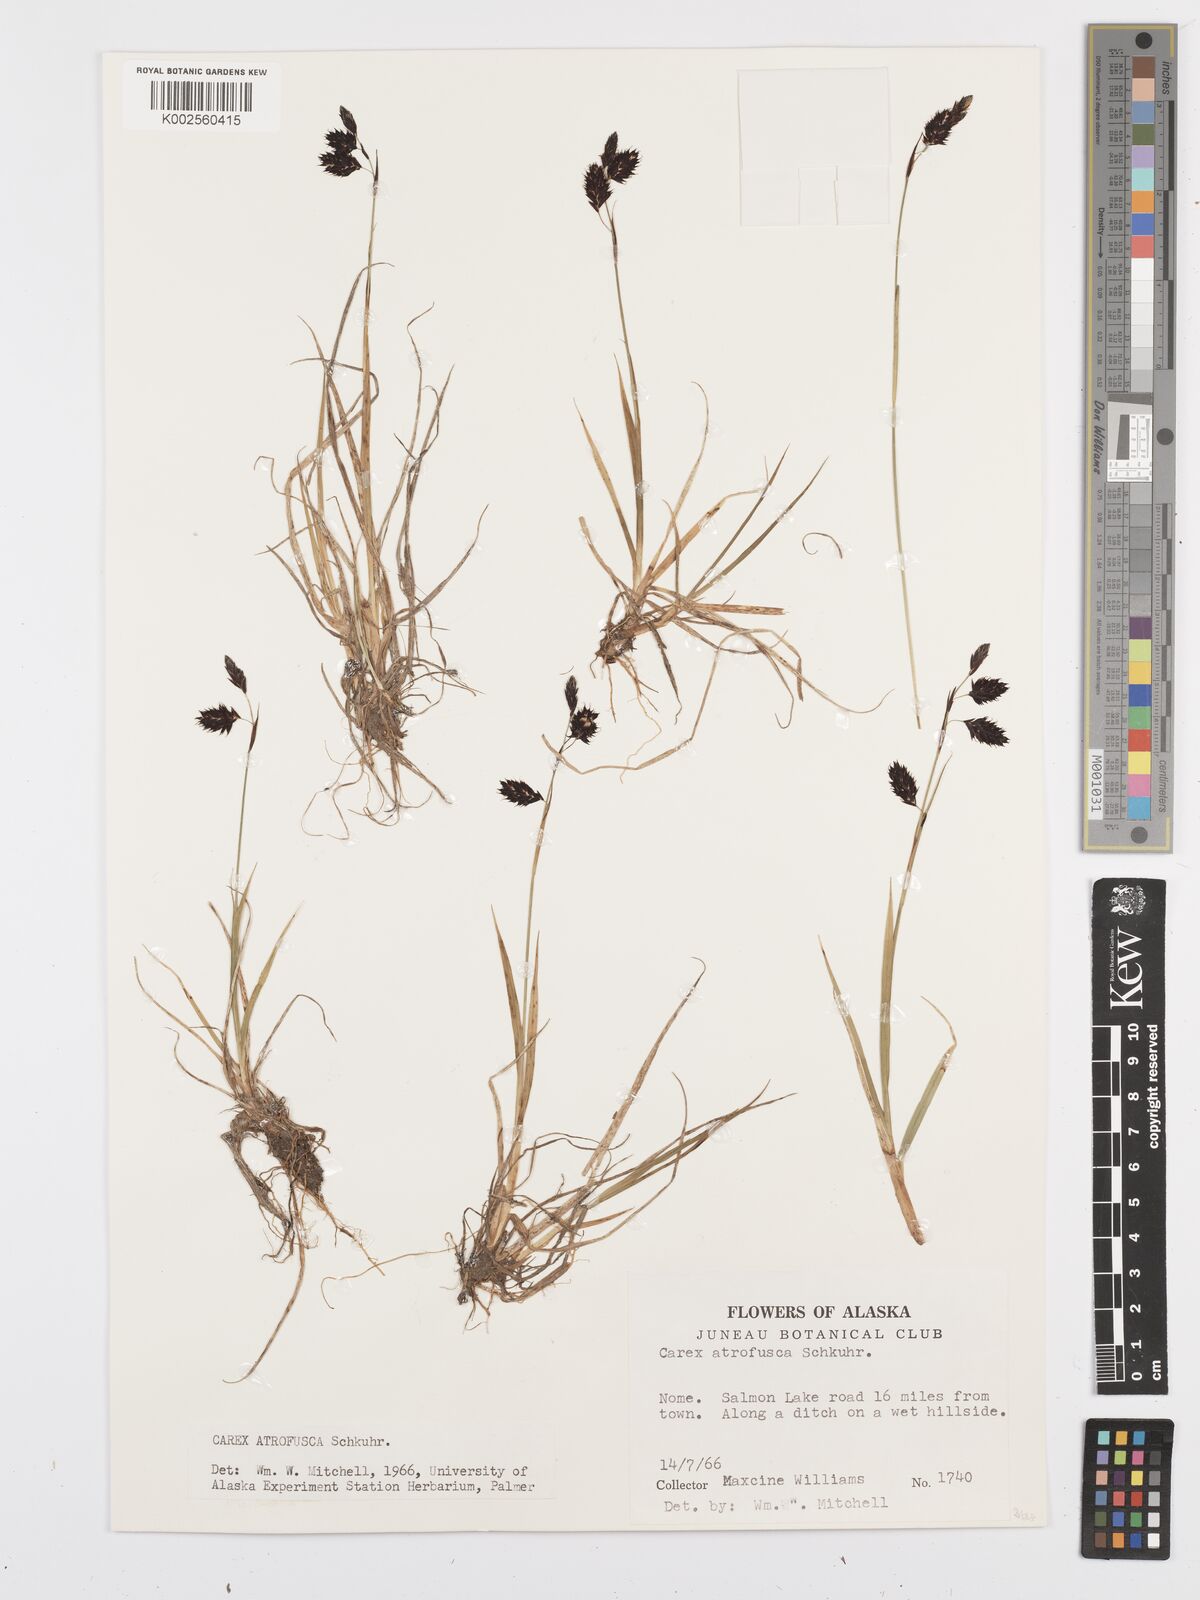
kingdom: Plantae
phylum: Tracheophyta
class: Liliopsida
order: Poales
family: Cyperaceae
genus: Carex
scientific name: Carex atrofusca
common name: Scorched alpine-sedge
